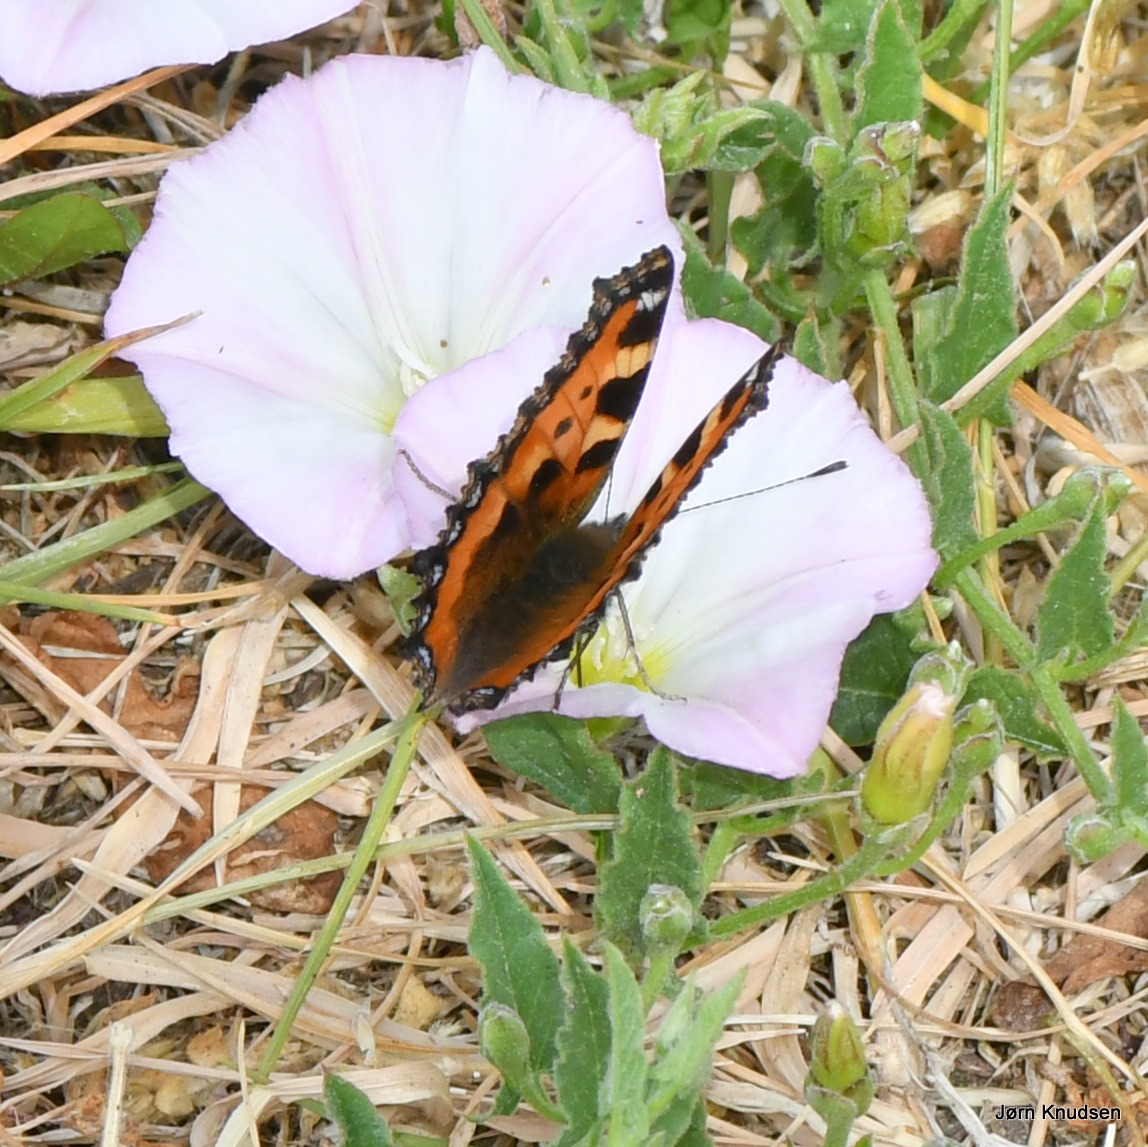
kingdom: Animalia
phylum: Arthropoda
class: Insecta
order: Lepidoptera
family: Nymphalidae
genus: Aglais
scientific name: Aglais urticae
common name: Nældens takvinge
